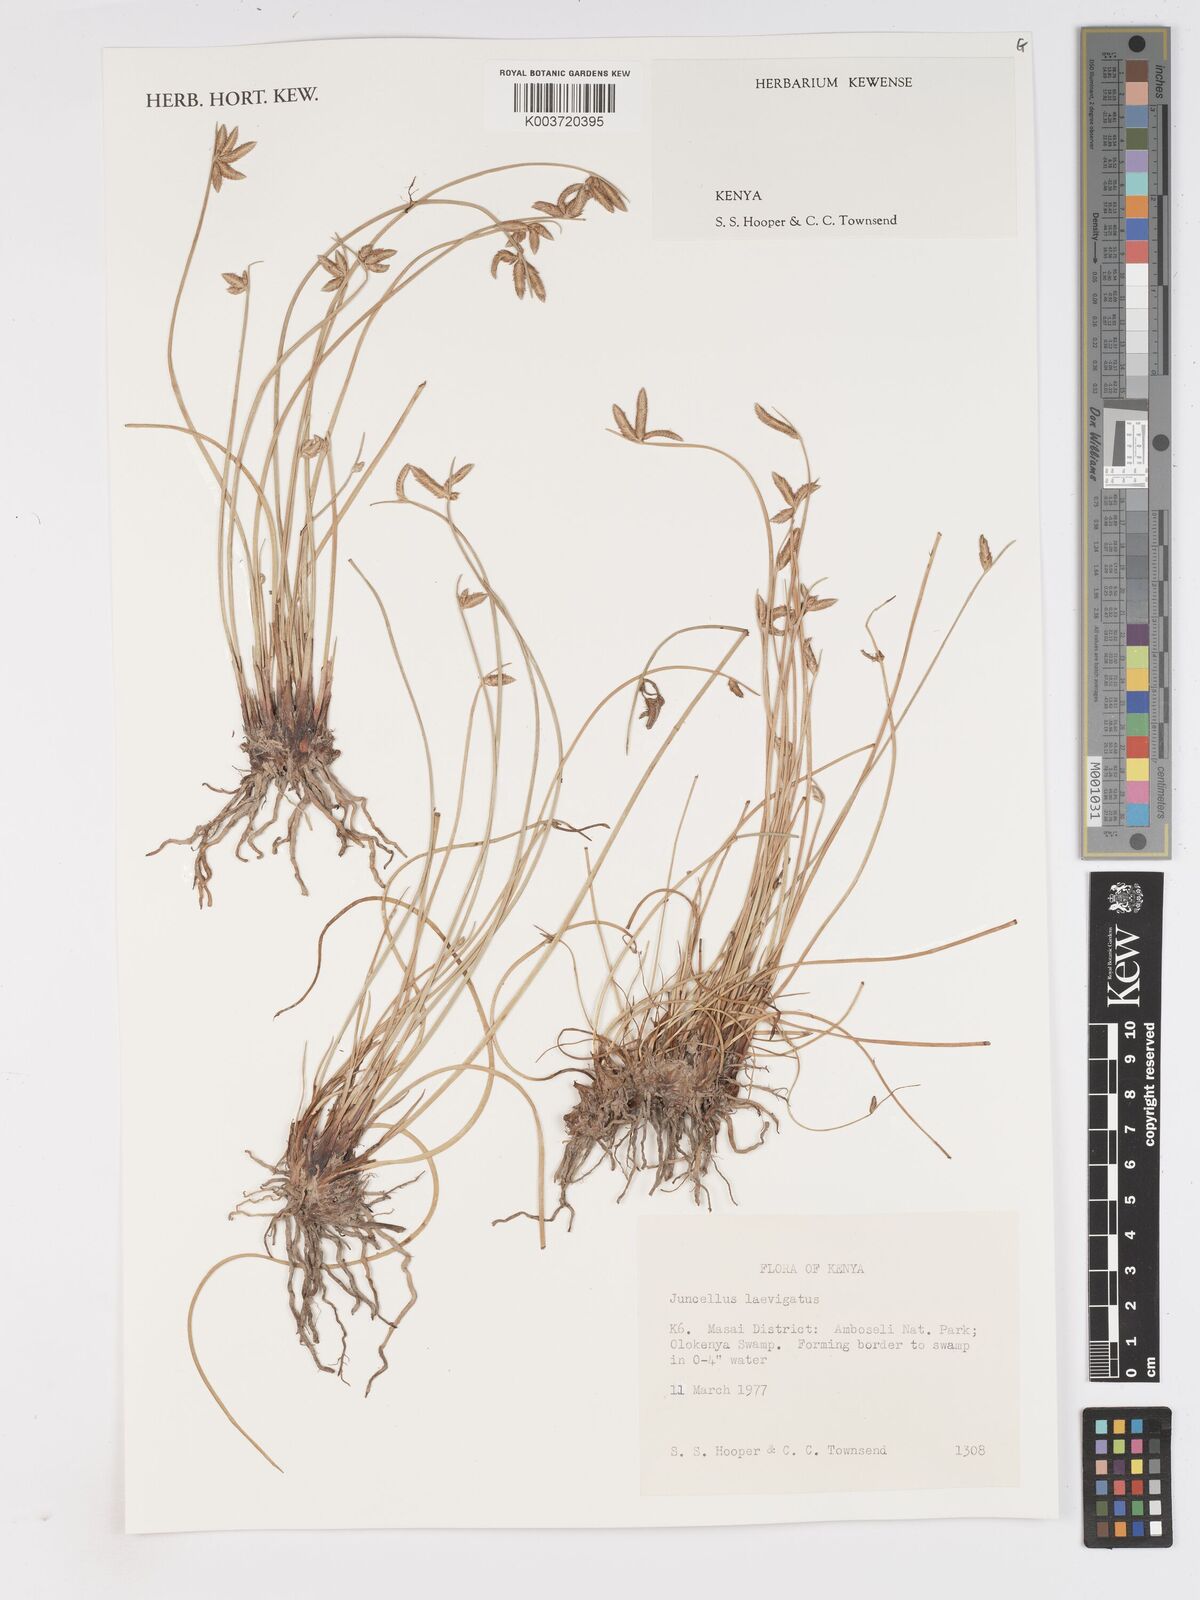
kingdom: Plantae
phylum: Tracheophyta
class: Liliopsida
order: Poales
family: Cyperaceae
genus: Cyperus
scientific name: Cyperus laevigatus
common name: Smooth flat sedge
